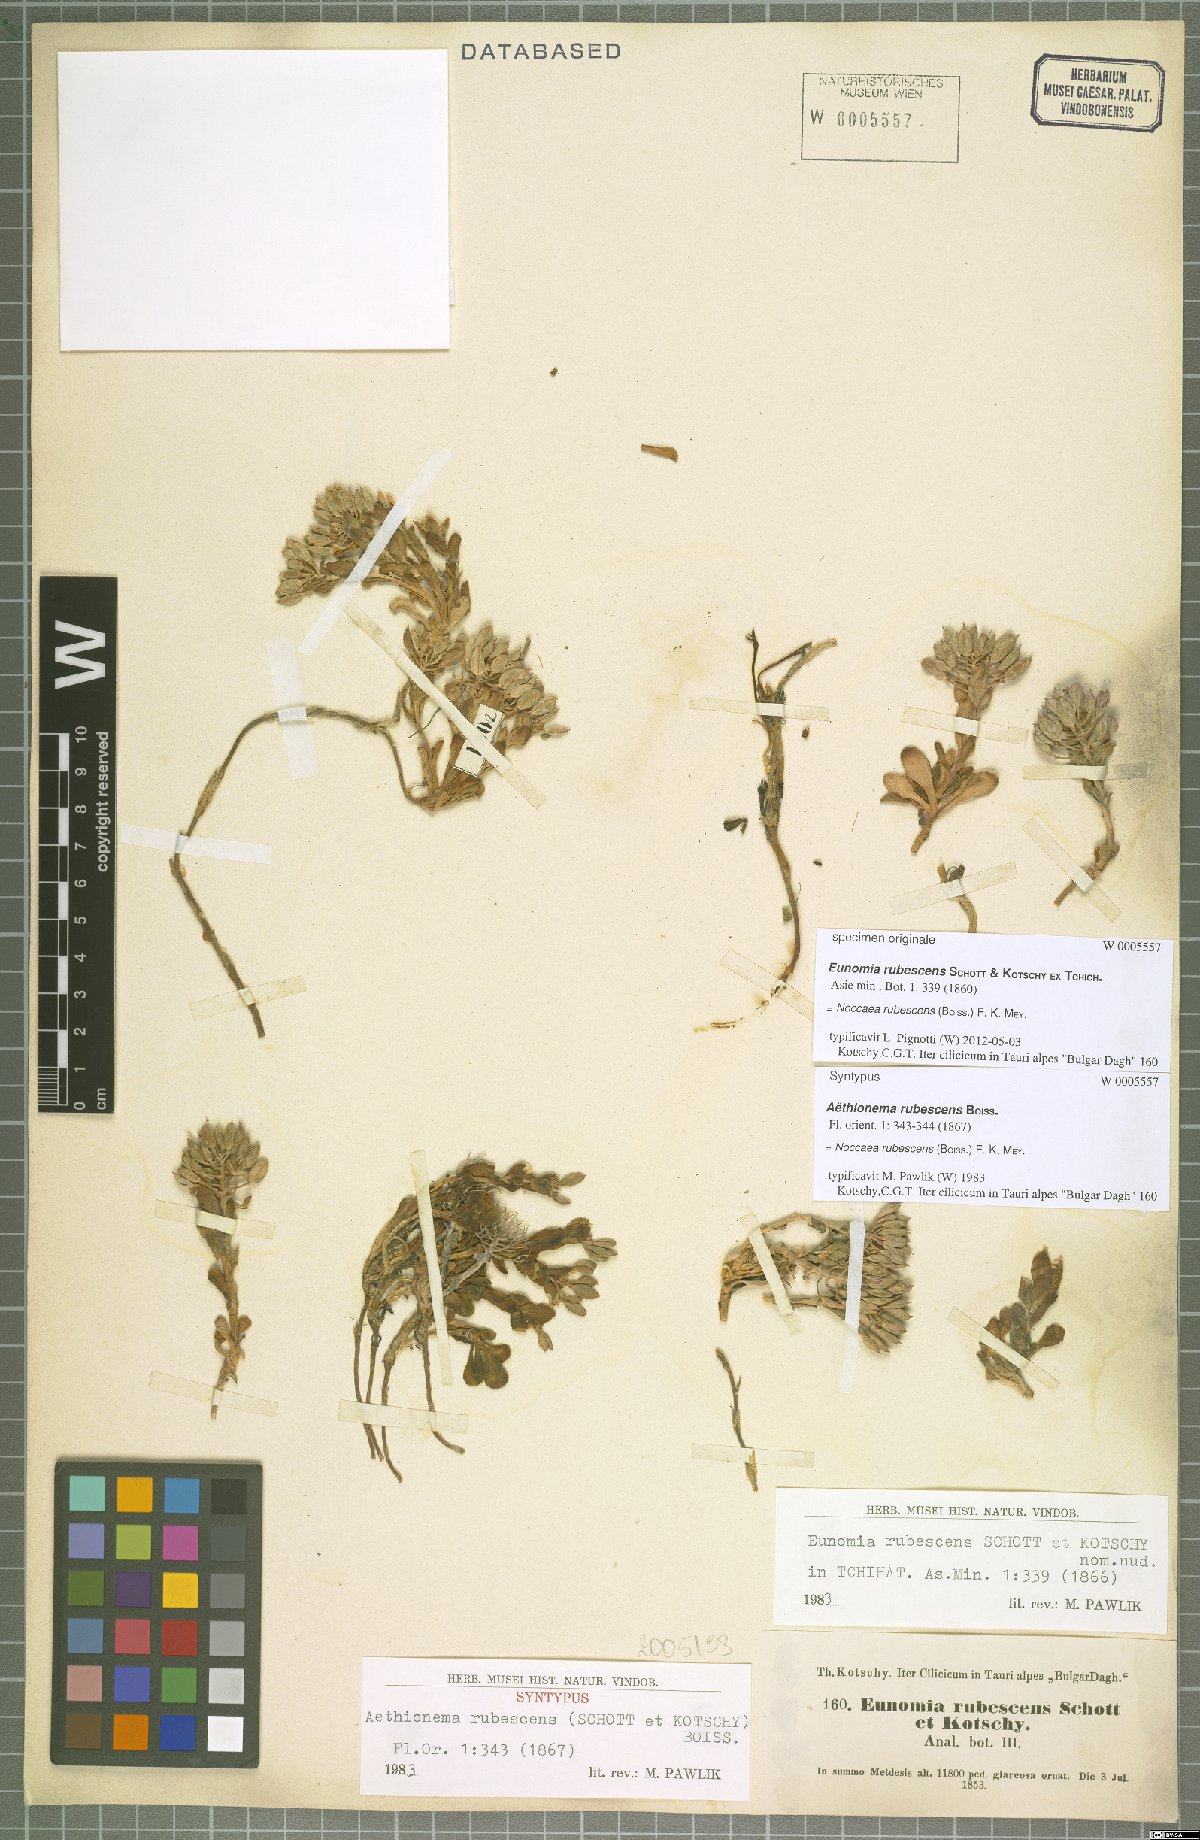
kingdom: Plantae
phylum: Tracheophyta
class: Magnoliopsida
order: Brassicales
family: Brassicaceae
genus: Noccaea
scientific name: Noccaea rubescens
